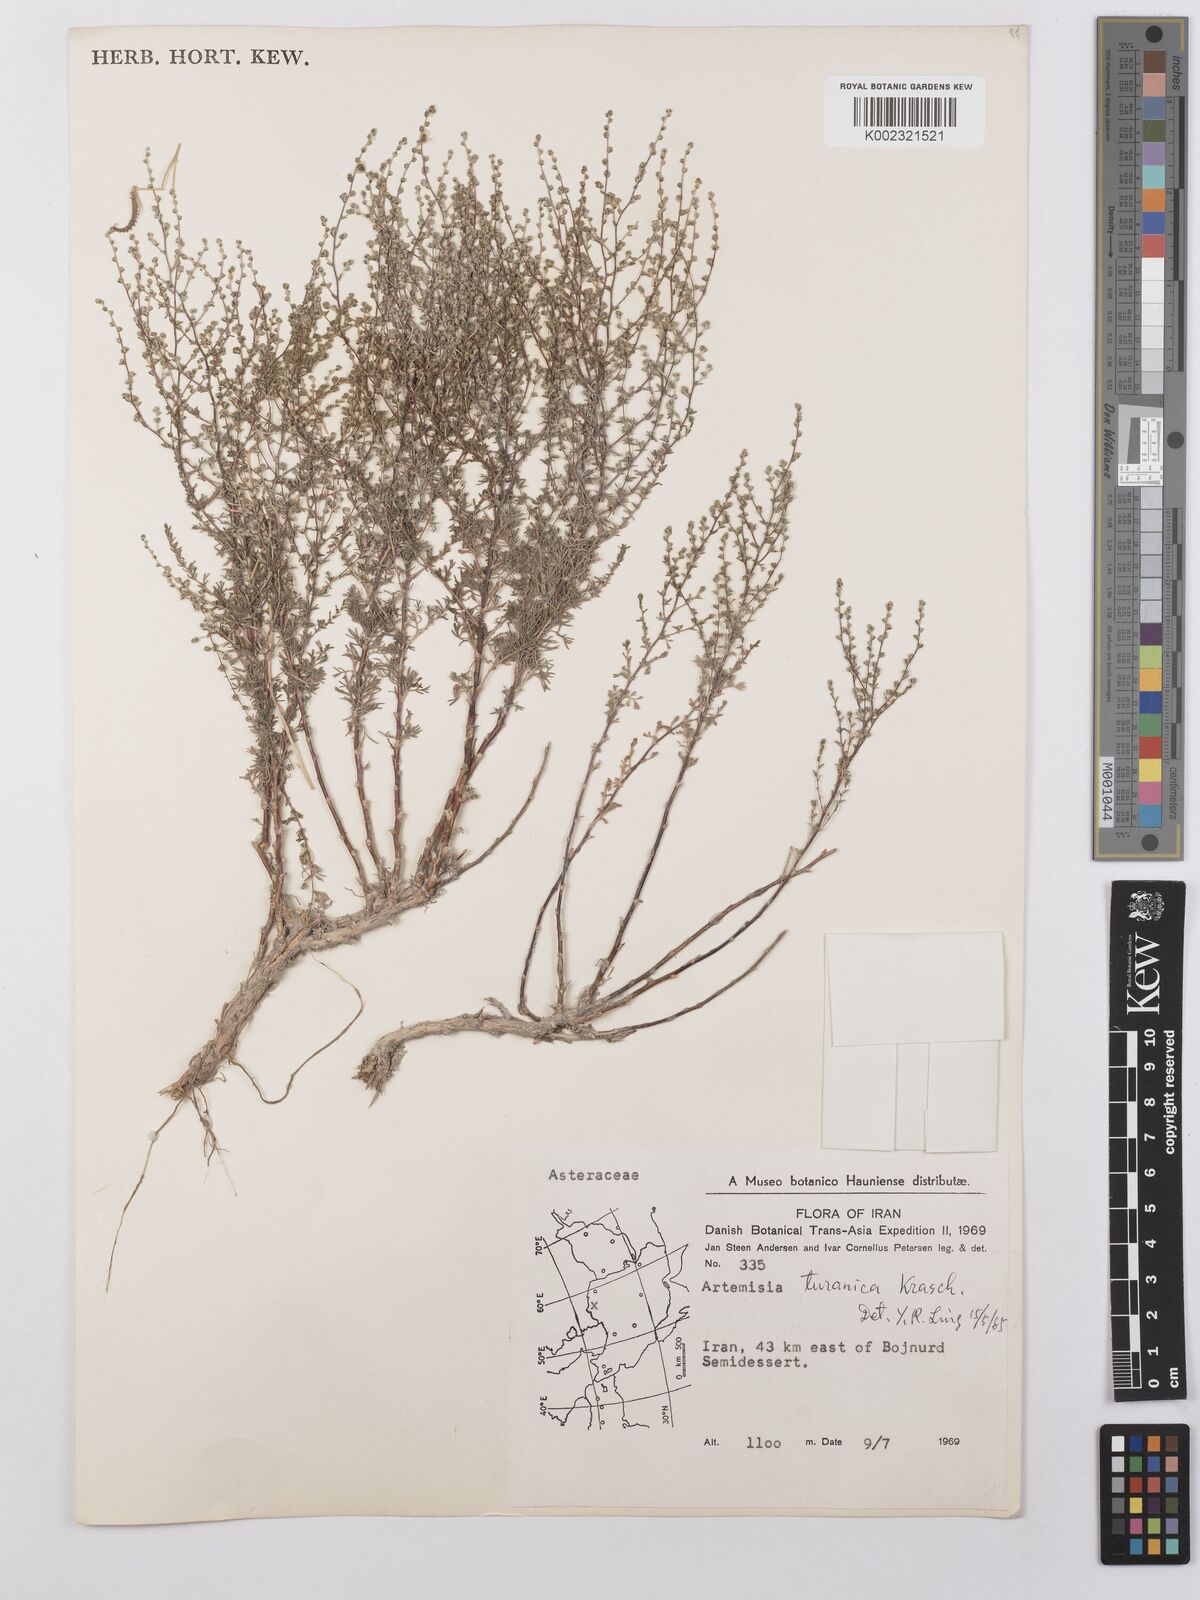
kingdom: Plantae
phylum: Tracheophyta
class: Magnoliopsida
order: Asterales
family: Asteraceae
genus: Artemisia
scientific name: Artemisia turanica
